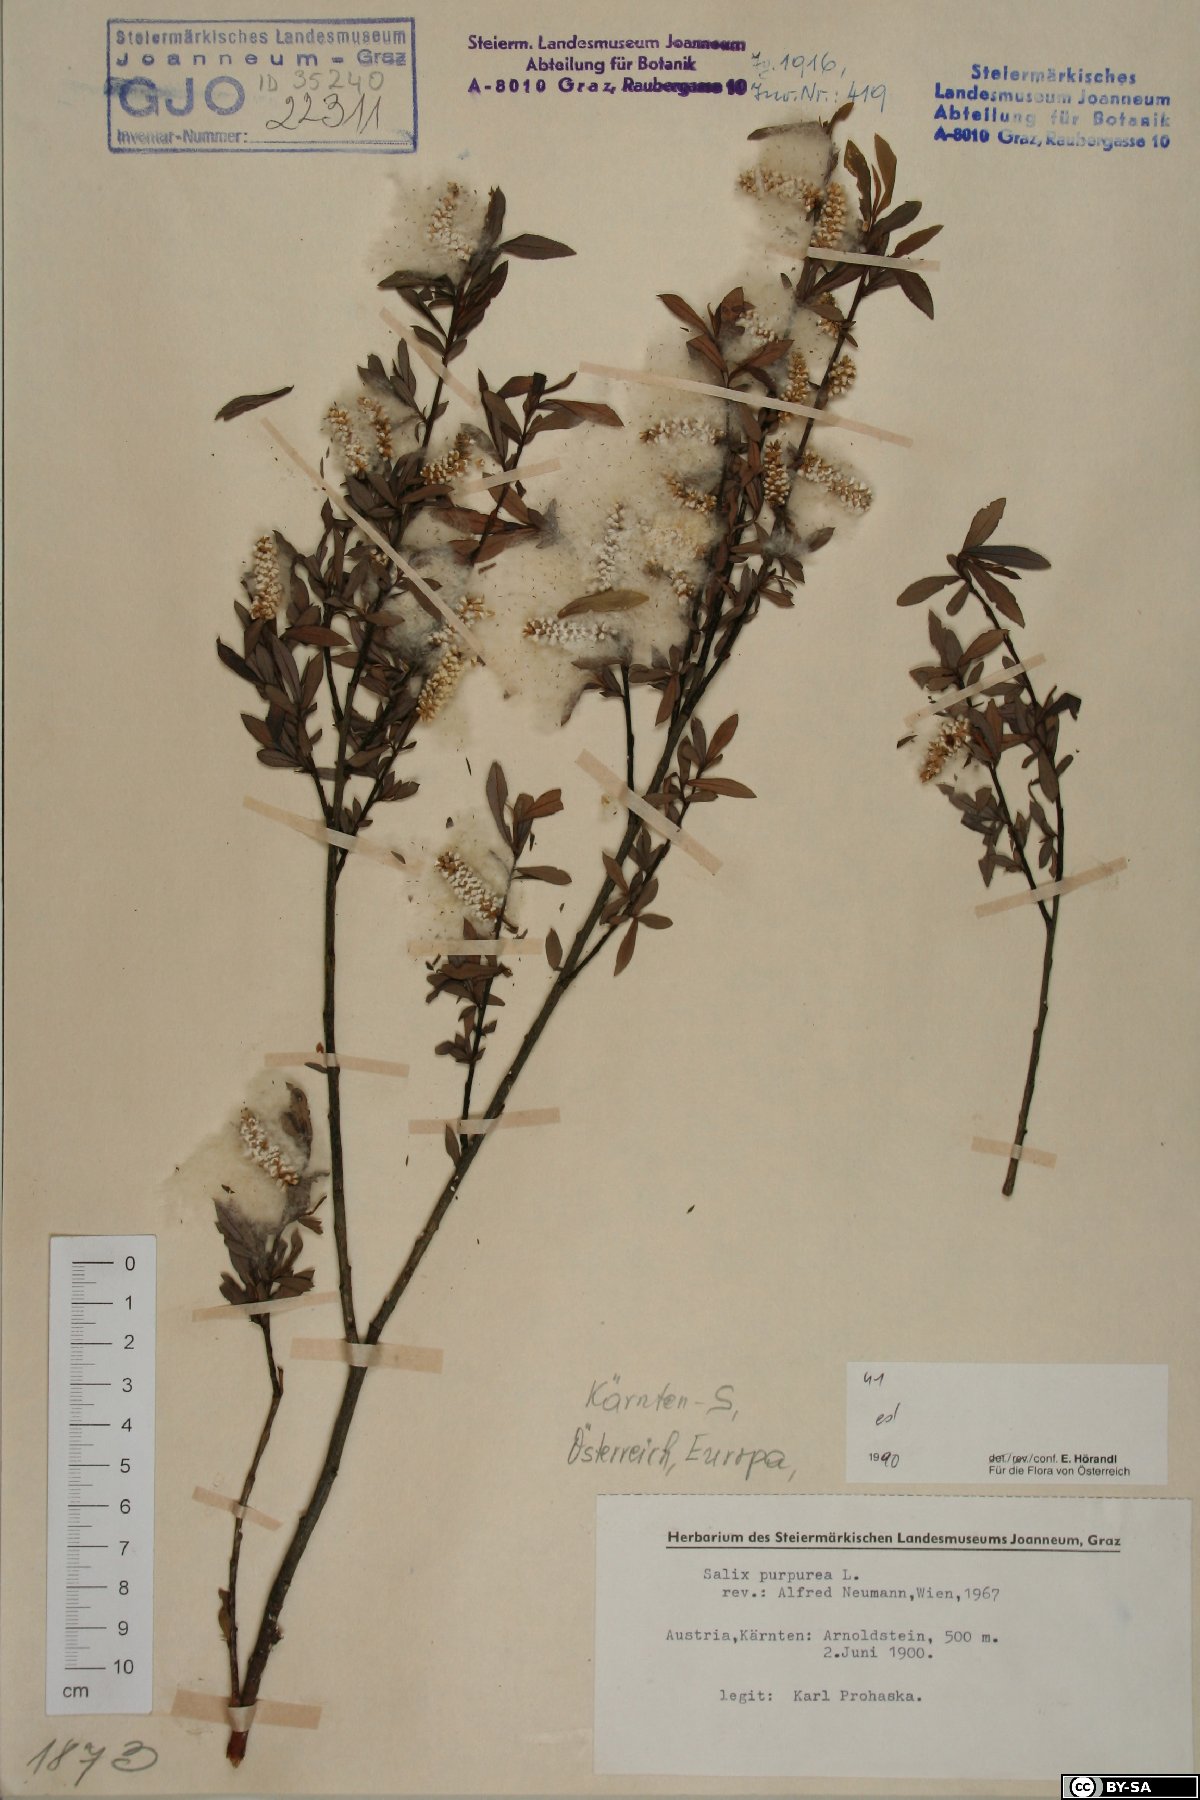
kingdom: Plantae
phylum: Tracheophyta
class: Magnoliopsida
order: Malpighiales
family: Salicaceae
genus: Salix
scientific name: Salix purpurea
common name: Purple willow
